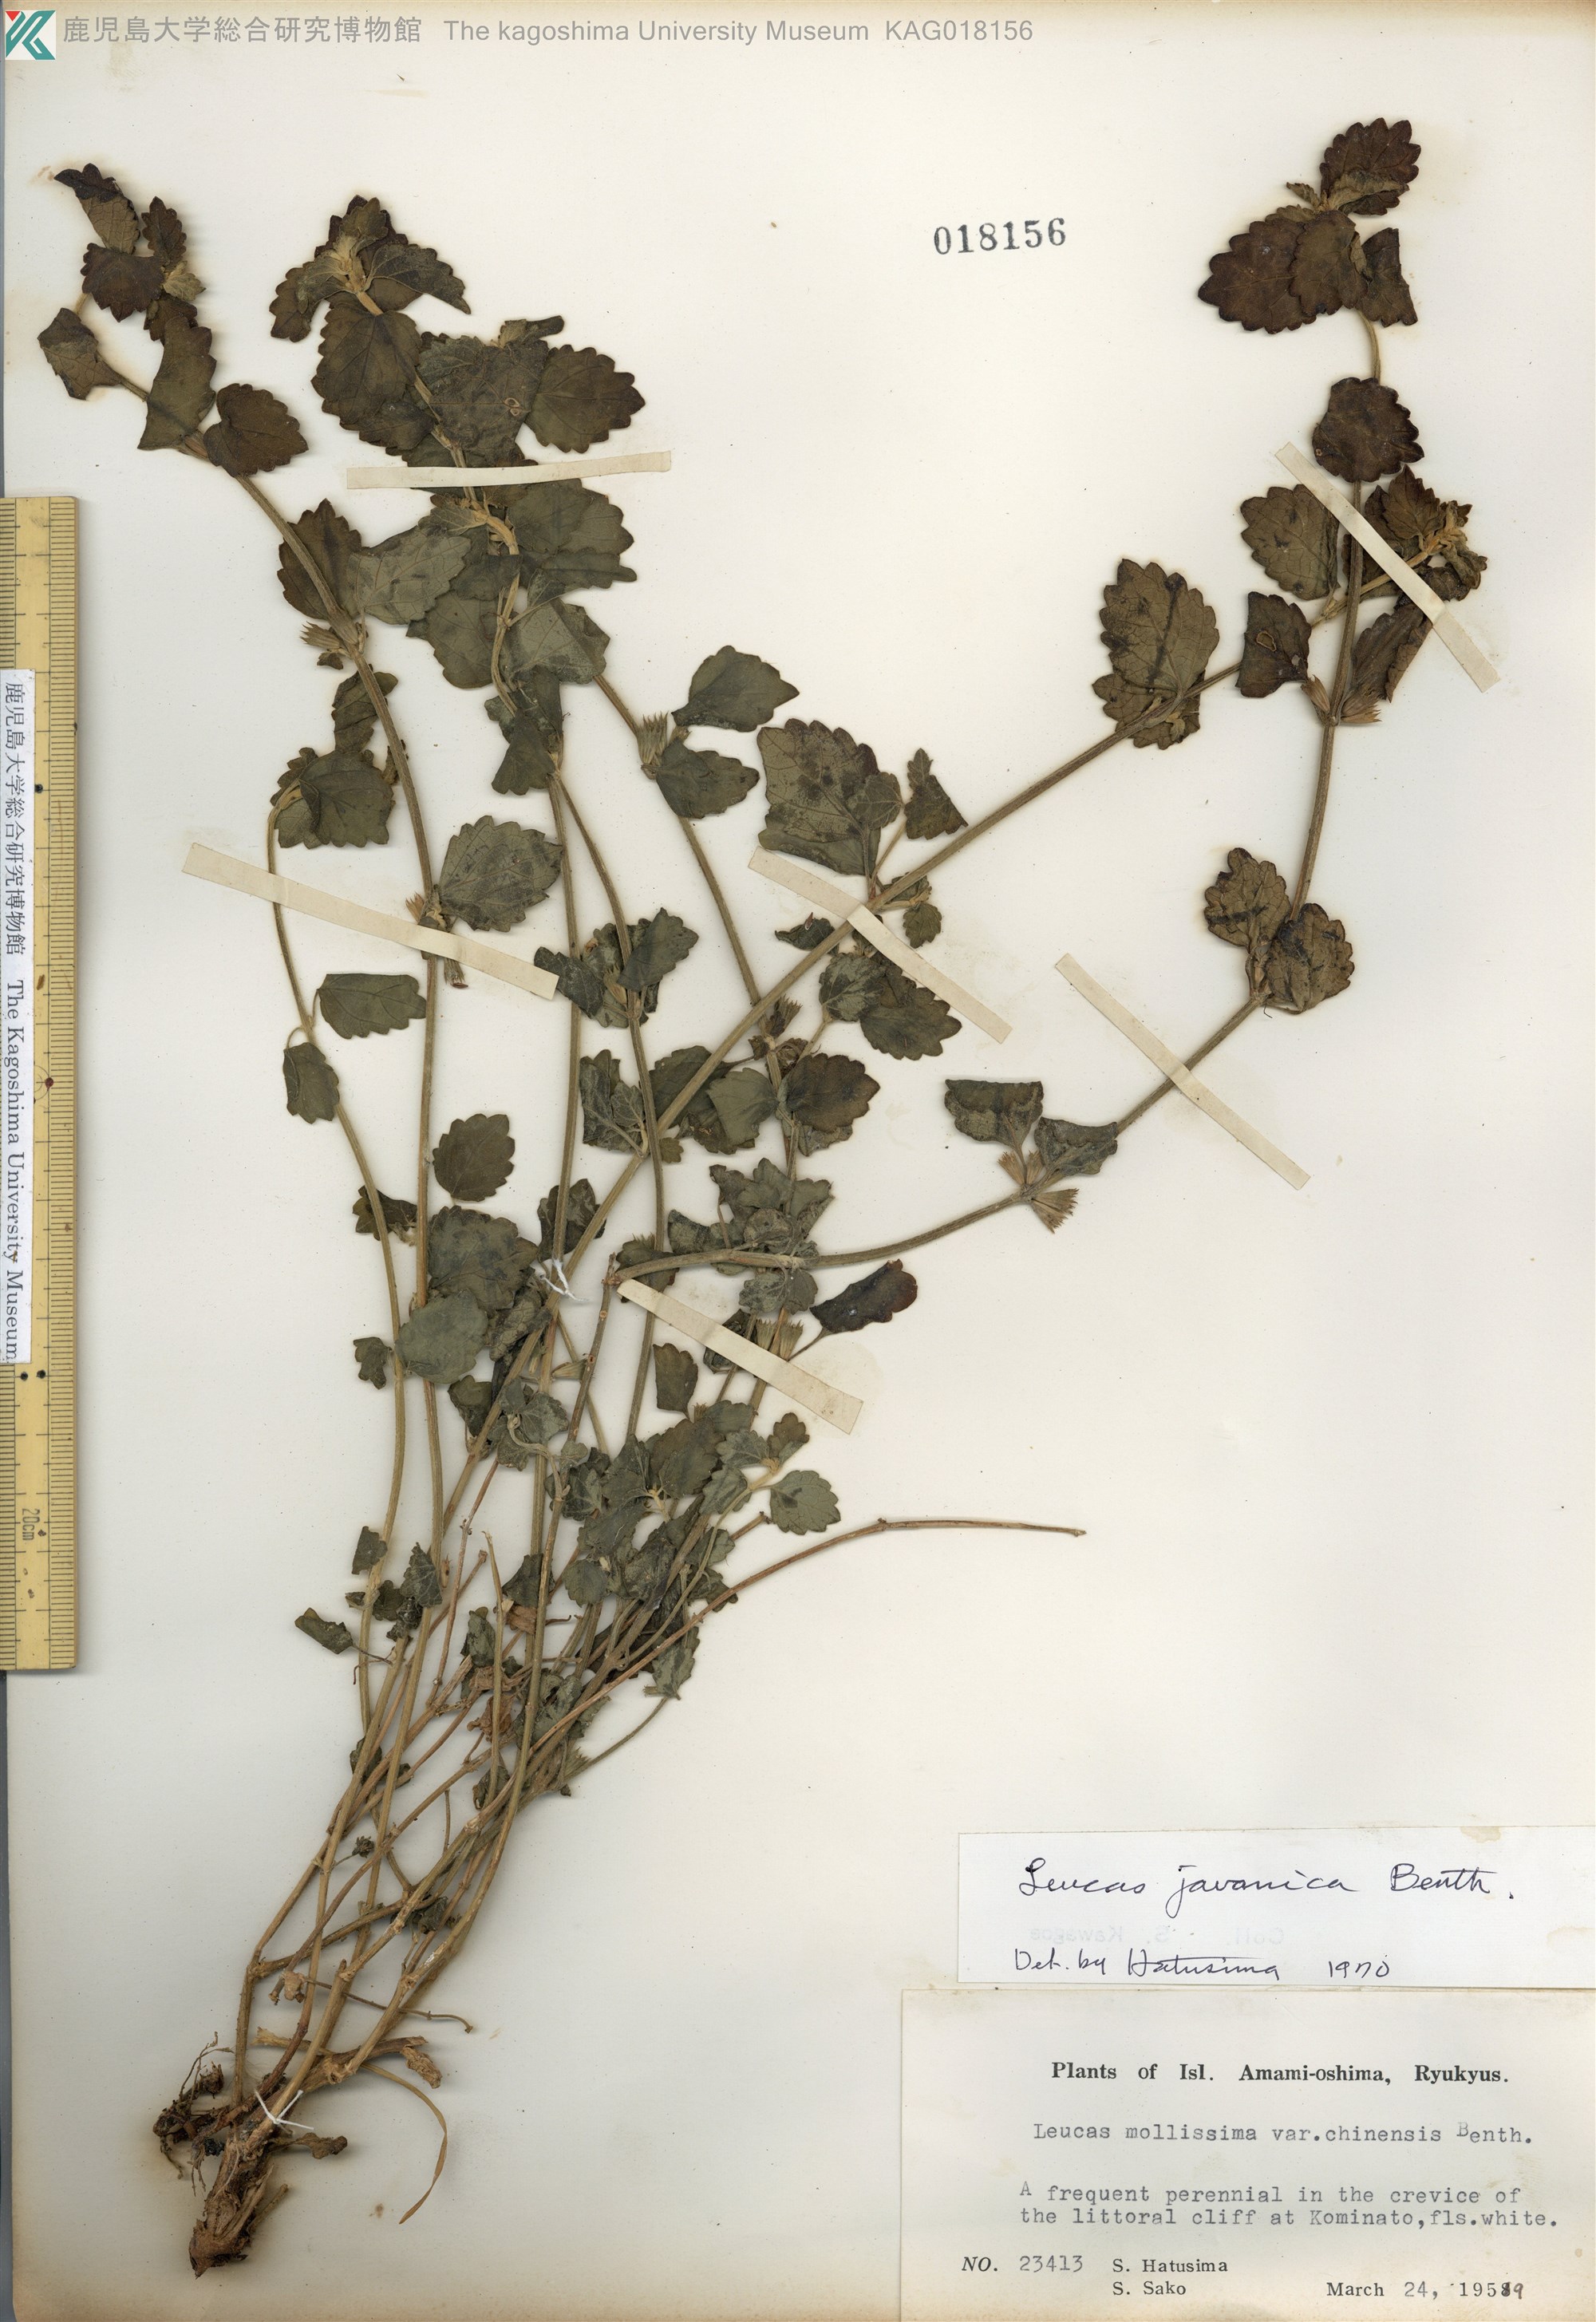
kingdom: Plantae
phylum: Tracheophyta
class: Magnoliopsida
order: Lamiales
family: Lamiaceae
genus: Leucas
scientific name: Leucas chinensis
